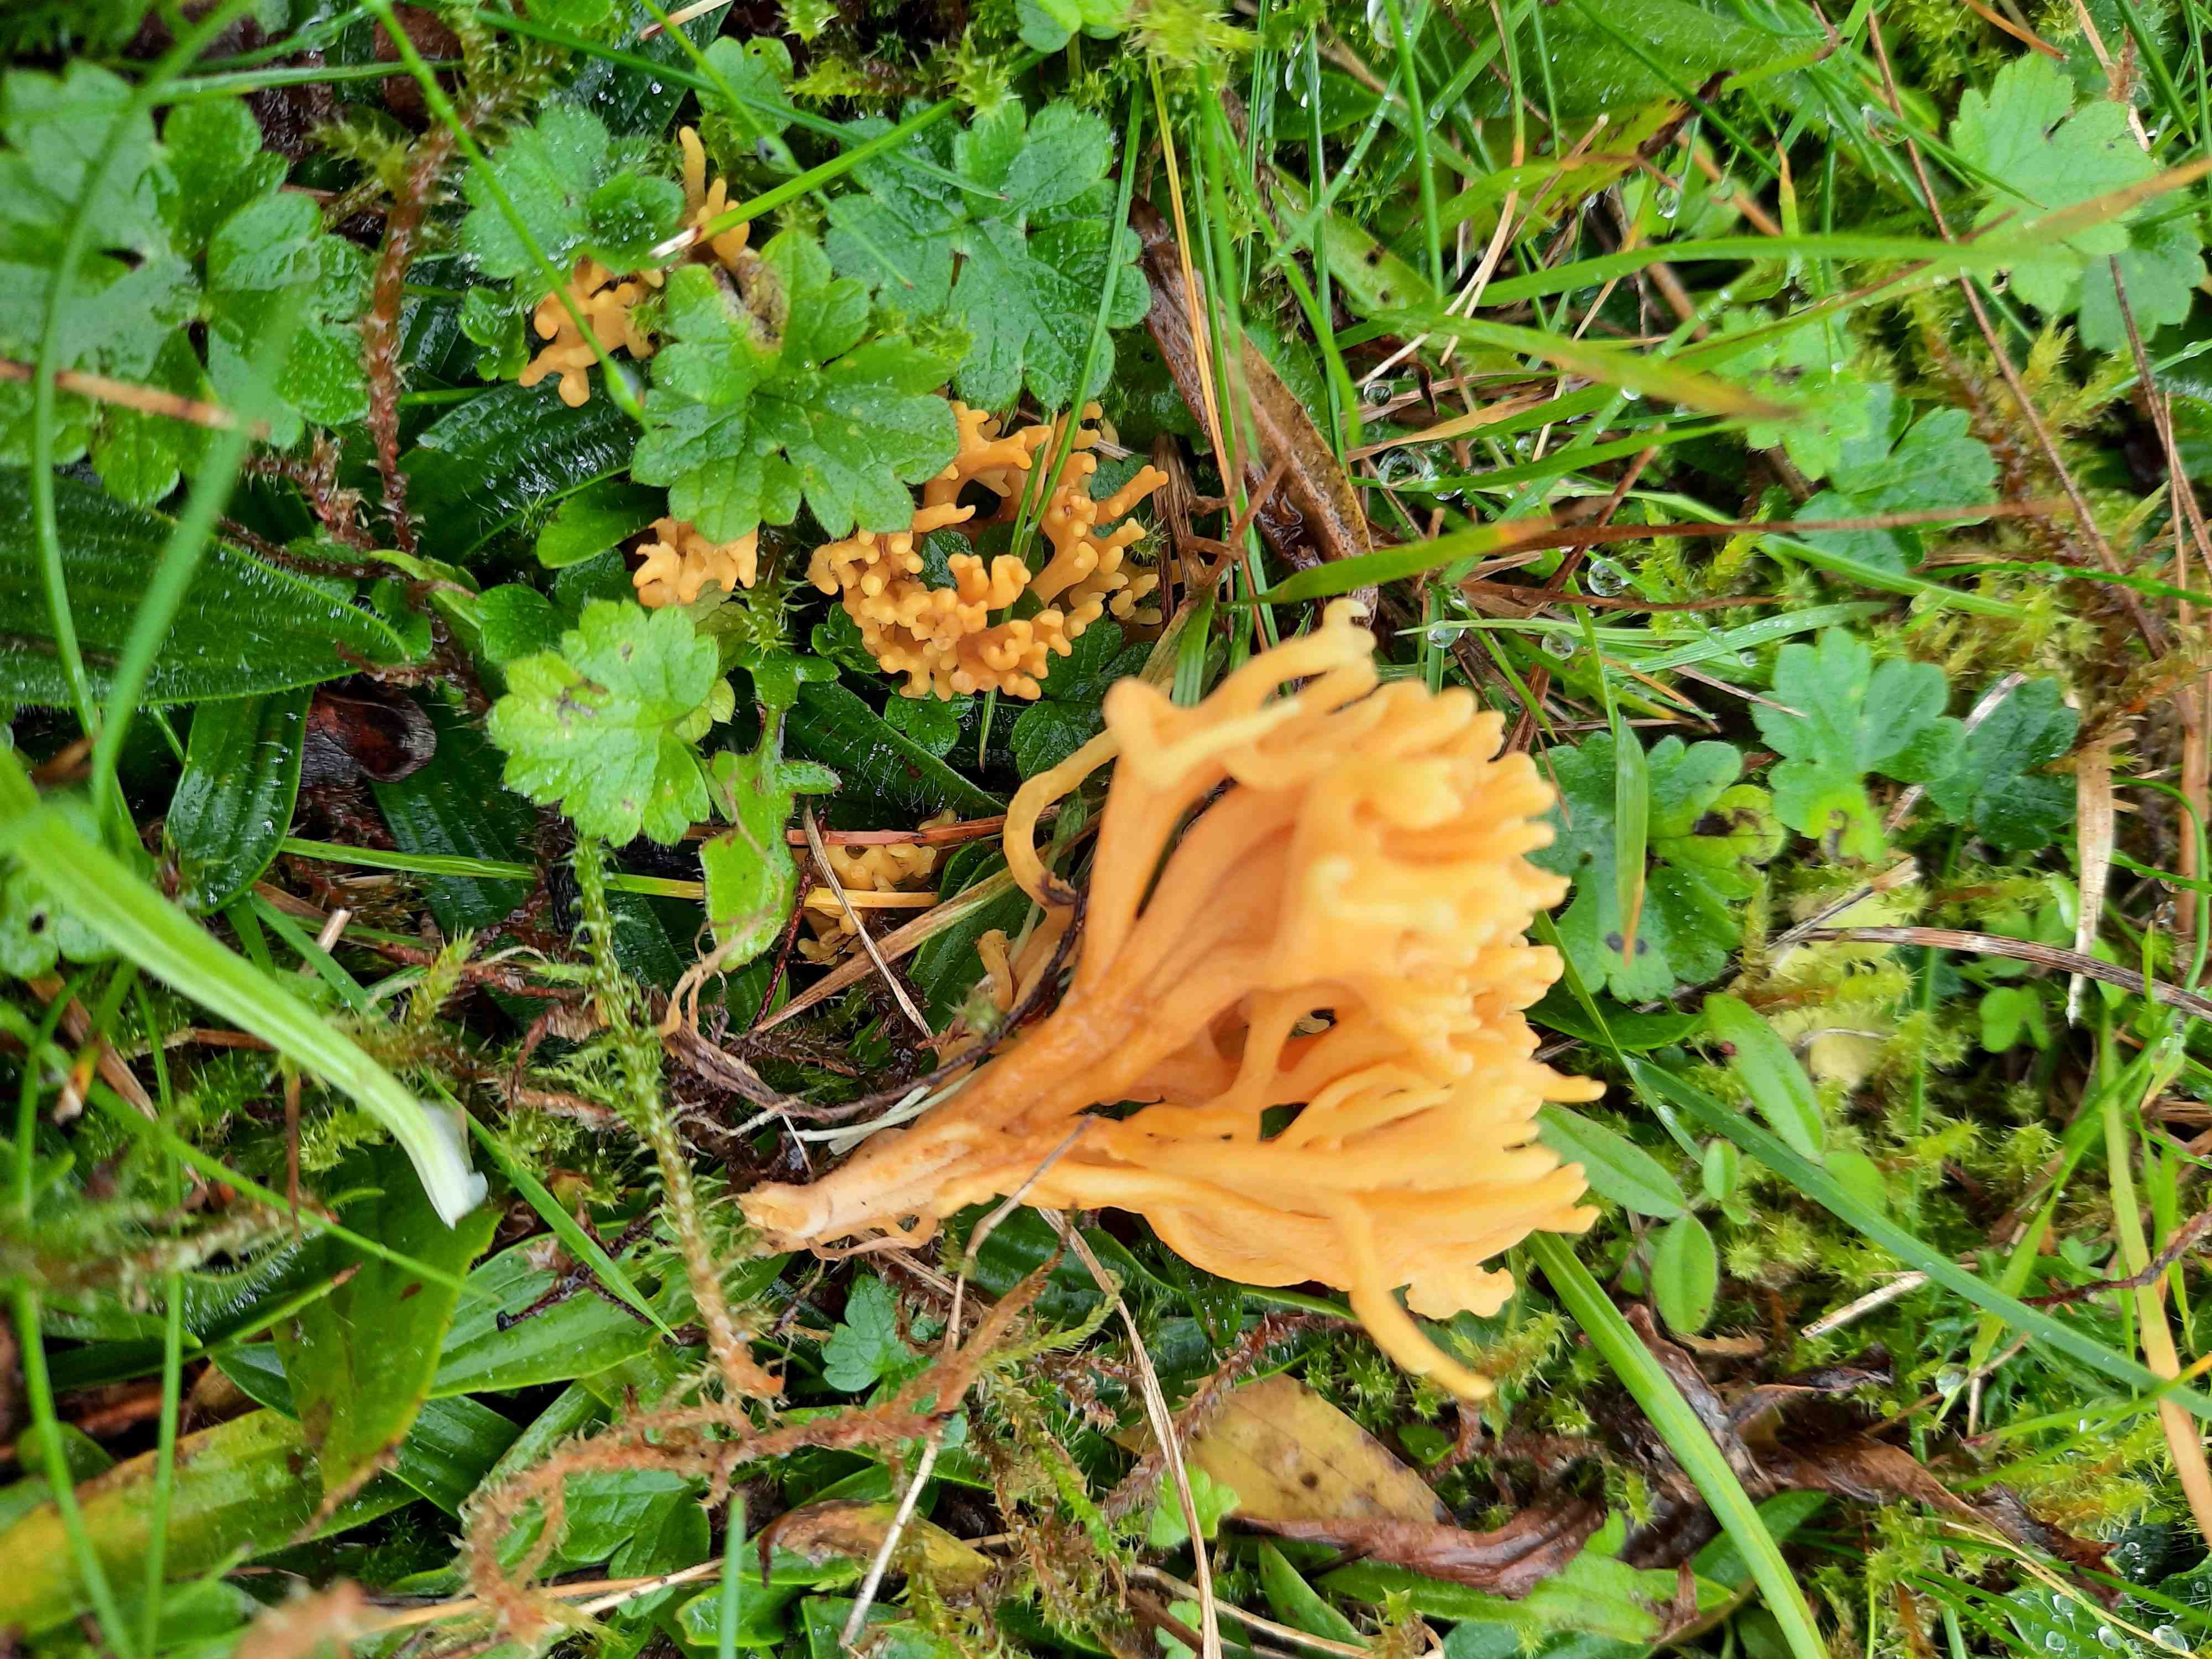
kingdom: Fungi
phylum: Basidiomycota
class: Agaricomycetes
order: Agaricales
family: Clavariaceae
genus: Clavulinopsis
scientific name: Clavulinopsis corniculata
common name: eng-køllesvamp
